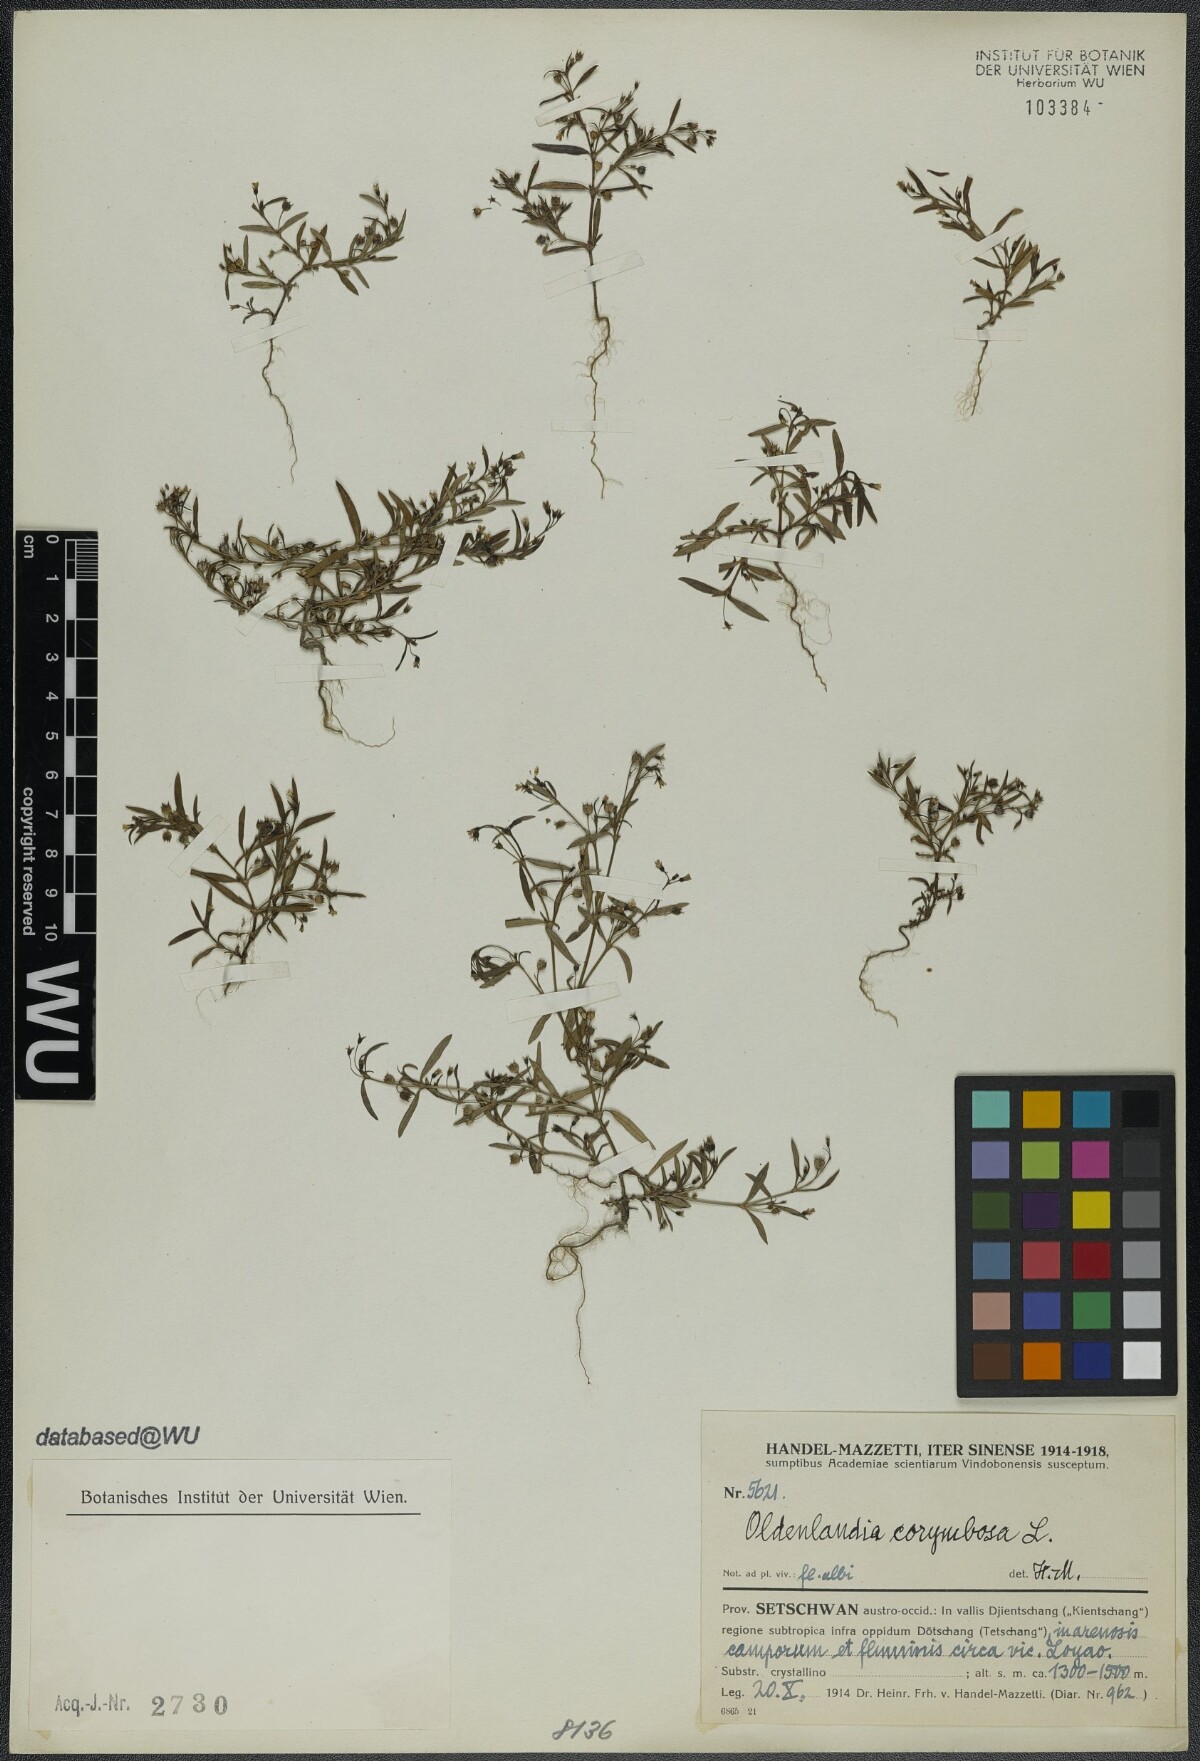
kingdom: Plantae
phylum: Tracheophyta
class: Magnoliopsida
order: Gentianales
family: Rubiaceae
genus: Oldenlandia
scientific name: Oldenlandia corymbosa
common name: Flat-top mille graines
